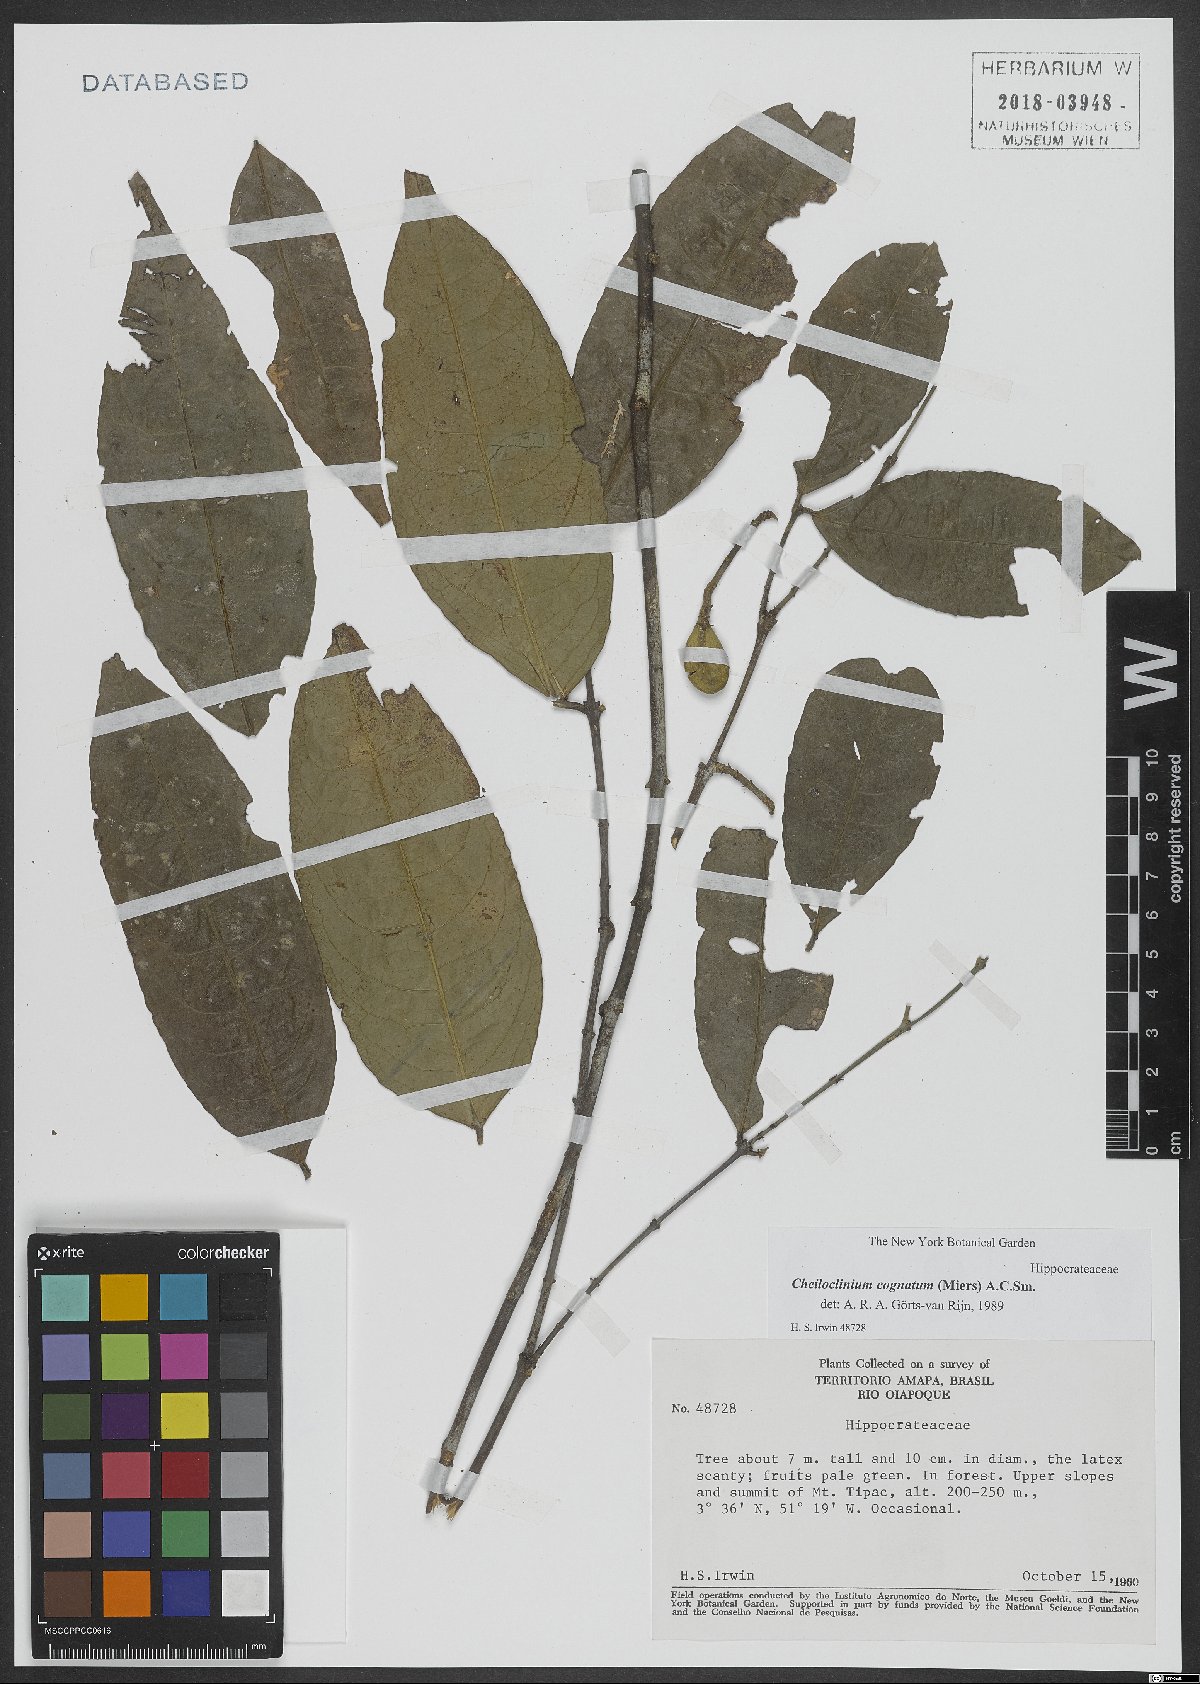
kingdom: Plantae
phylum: Tracheophyta
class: Magnoliopsida
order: Celastrales
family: Celastraceae
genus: Cheiloclinium
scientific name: Cheiloclinium cognatum
